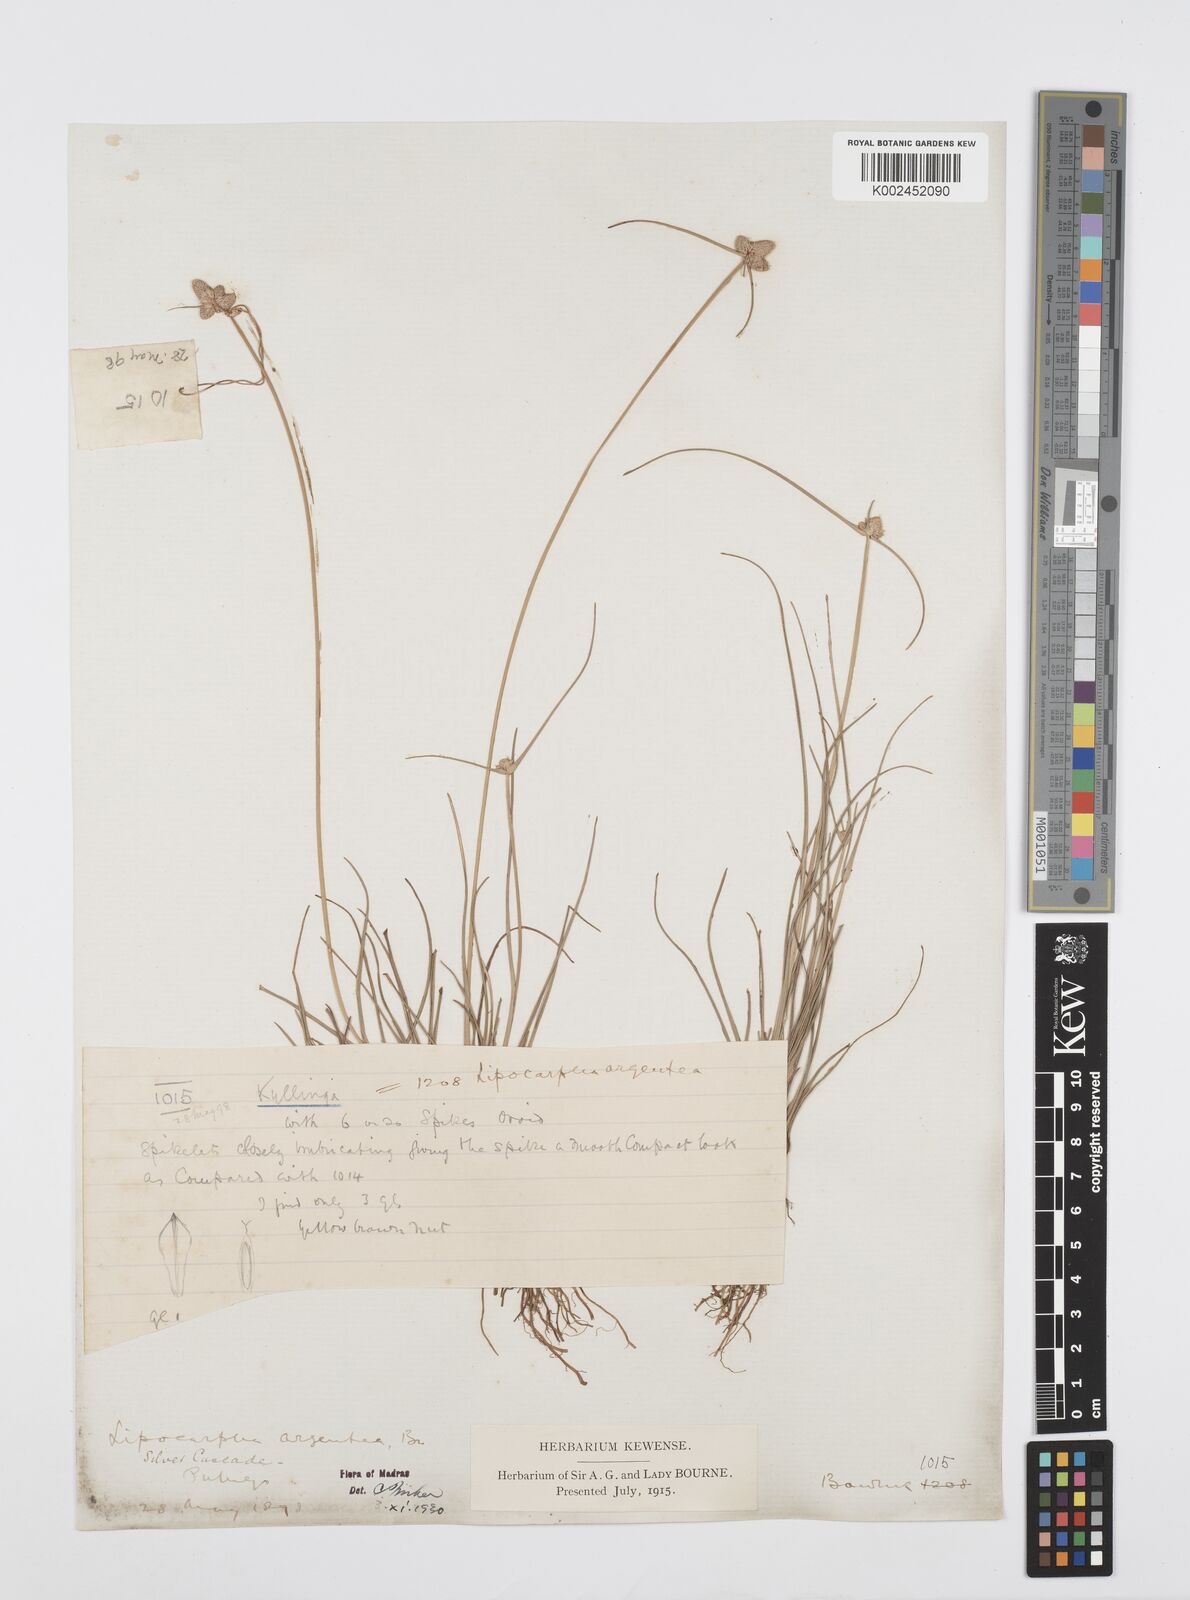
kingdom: Plantae
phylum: Tracheophyta
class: Liliopsida
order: Poales
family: Cyperaceae
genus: Cyperus
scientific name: Cyperus
